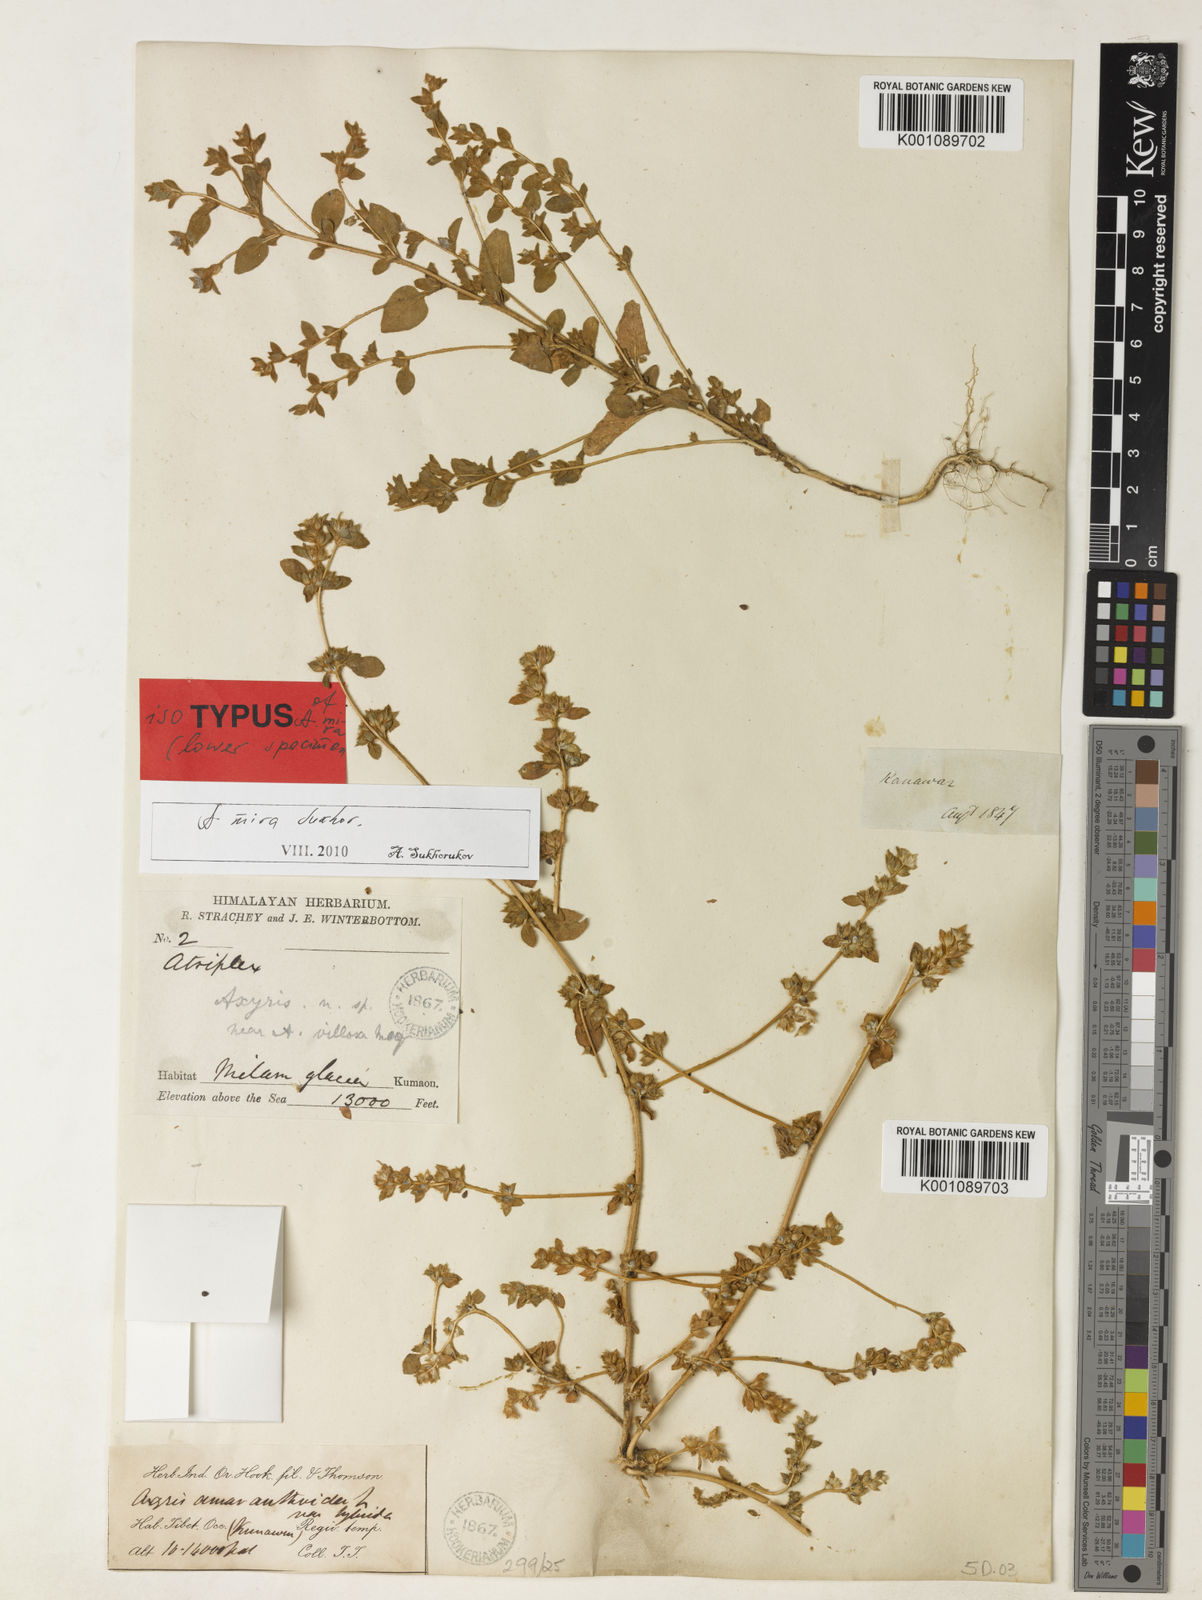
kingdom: Plantae
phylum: Tracheophyta
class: Magnoliopsida
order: Caryophyllales
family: Amaranthaceae
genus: Axyris
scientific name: Axyris mira
